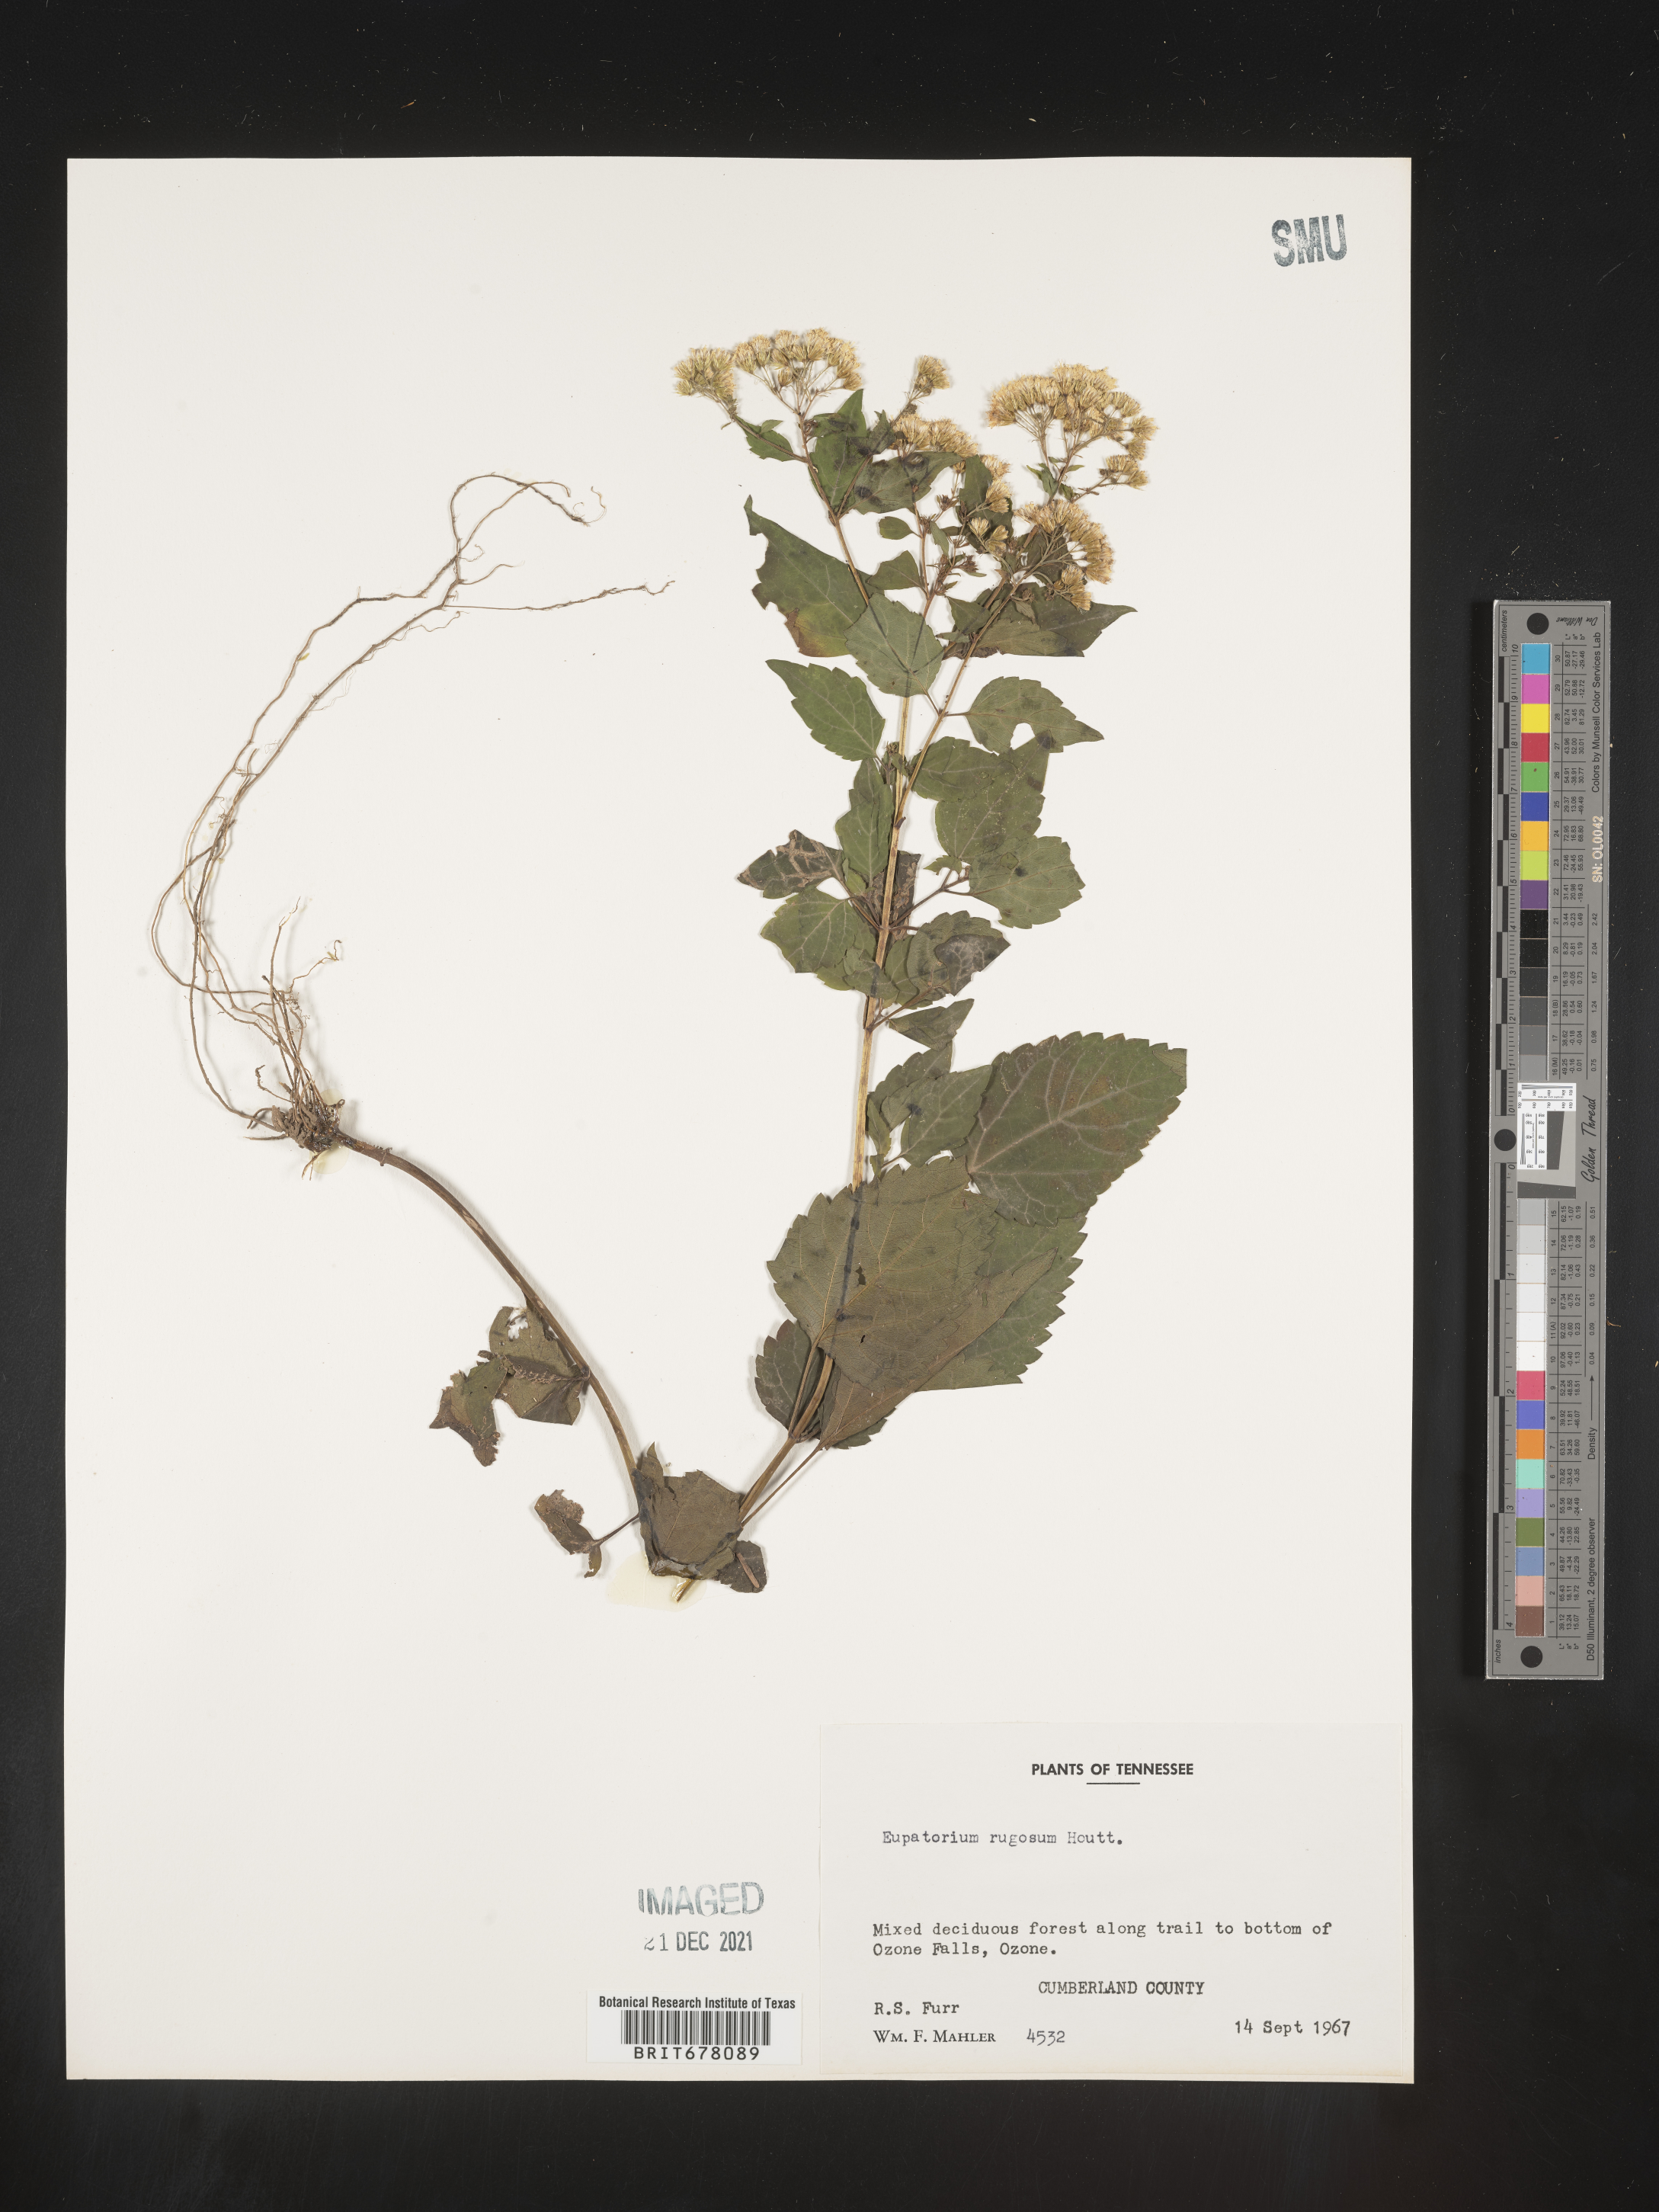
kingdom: Plantae
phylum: Tracheophyta
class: Magnoliopsida
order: Asterales
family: Asteraceae
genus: Eupatorium
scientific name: Eupatorium
